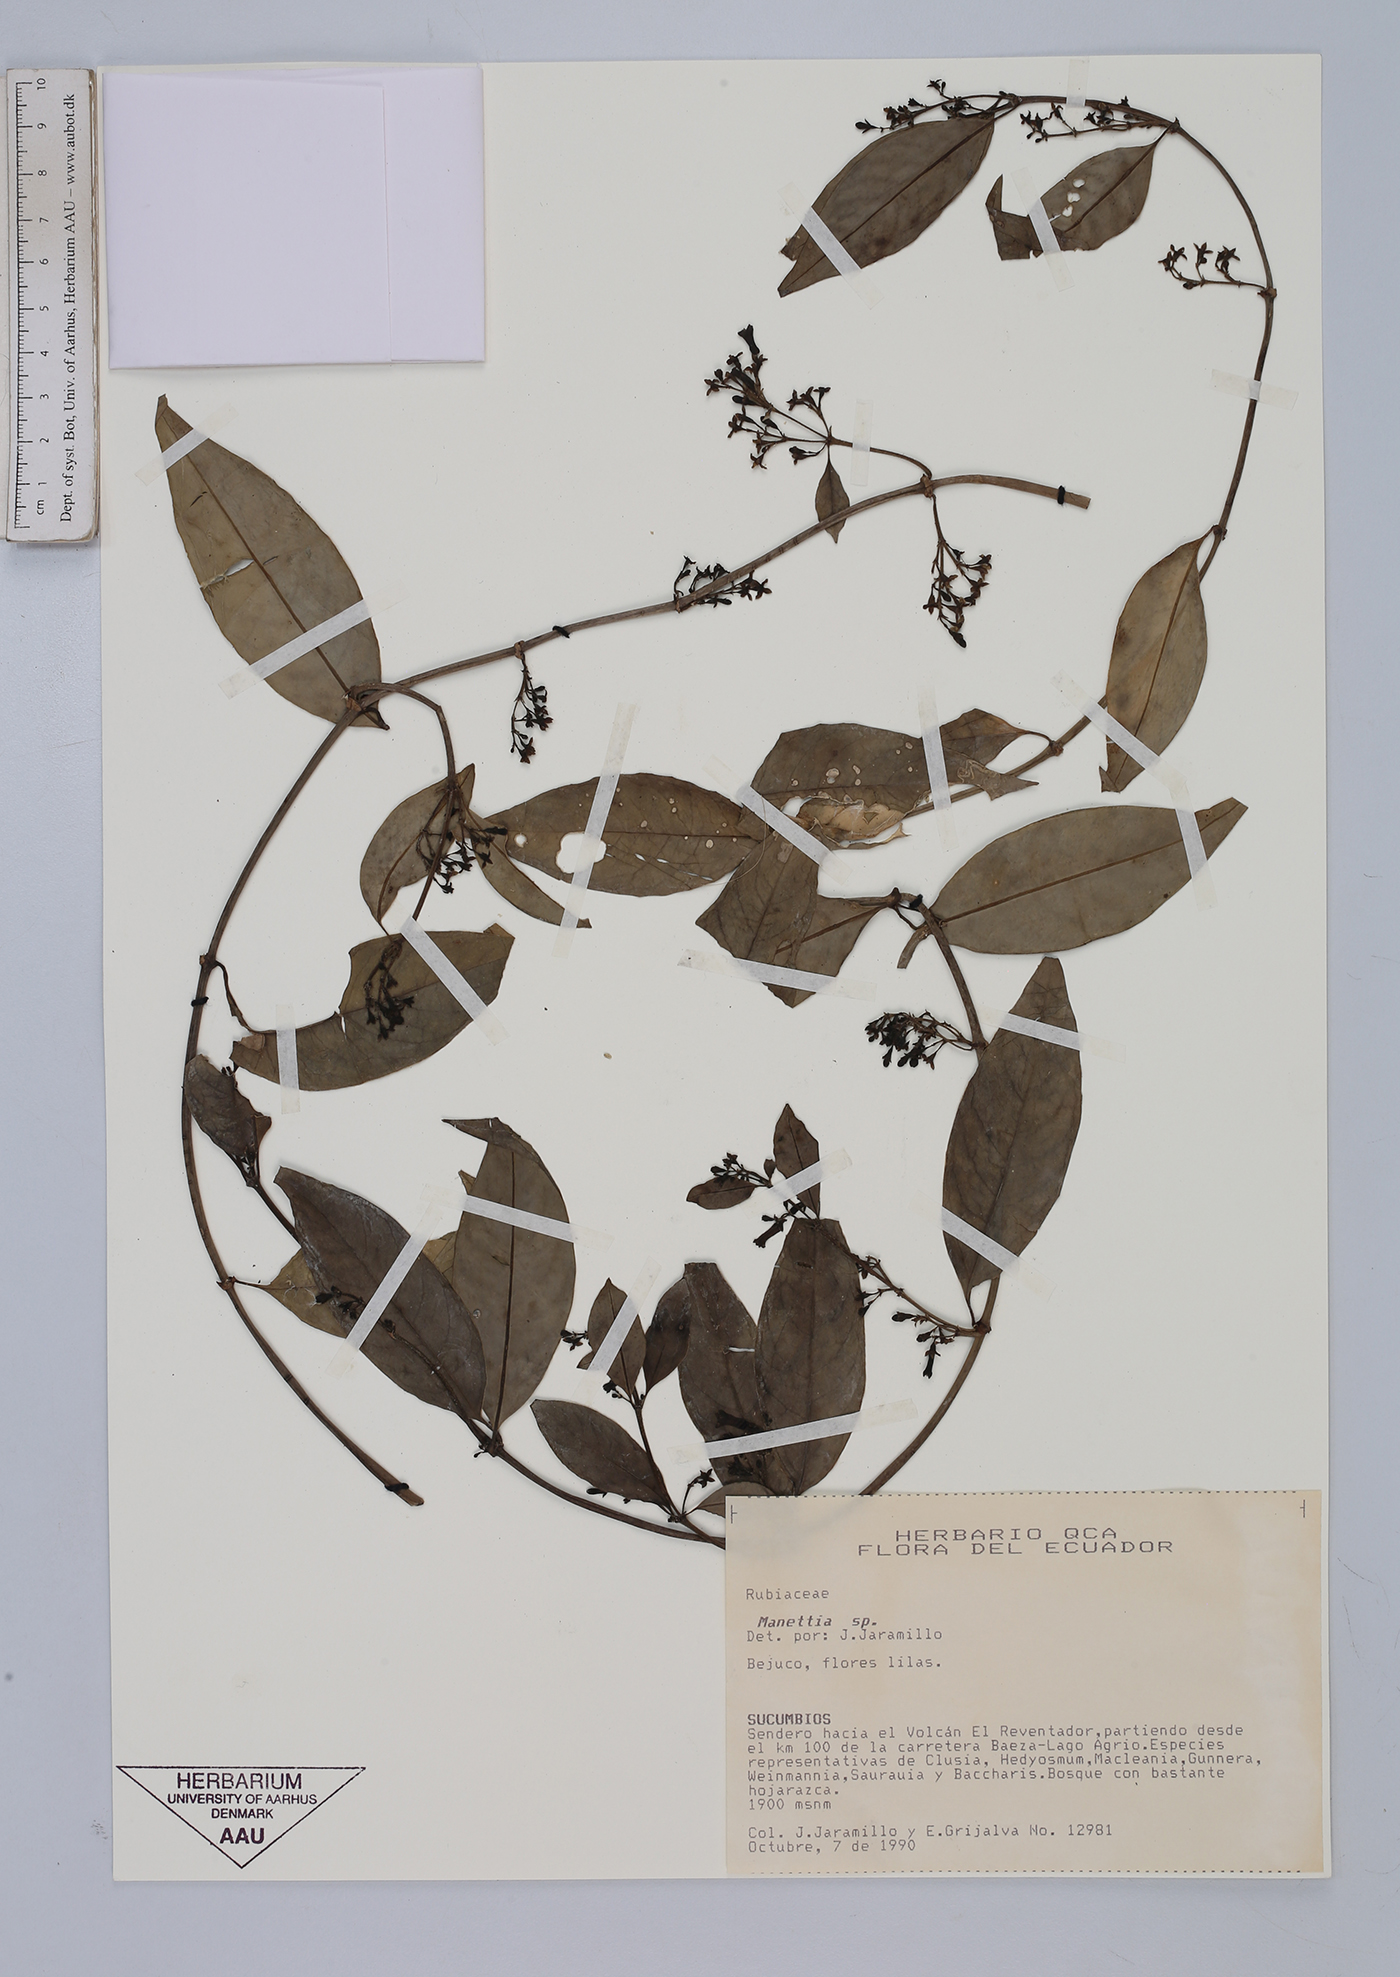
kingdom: Plantae
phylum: Tracheophyta
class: Magnoliopsida
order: Gentianales
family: Rubiaceae
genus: Manettia
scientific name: Manettia
